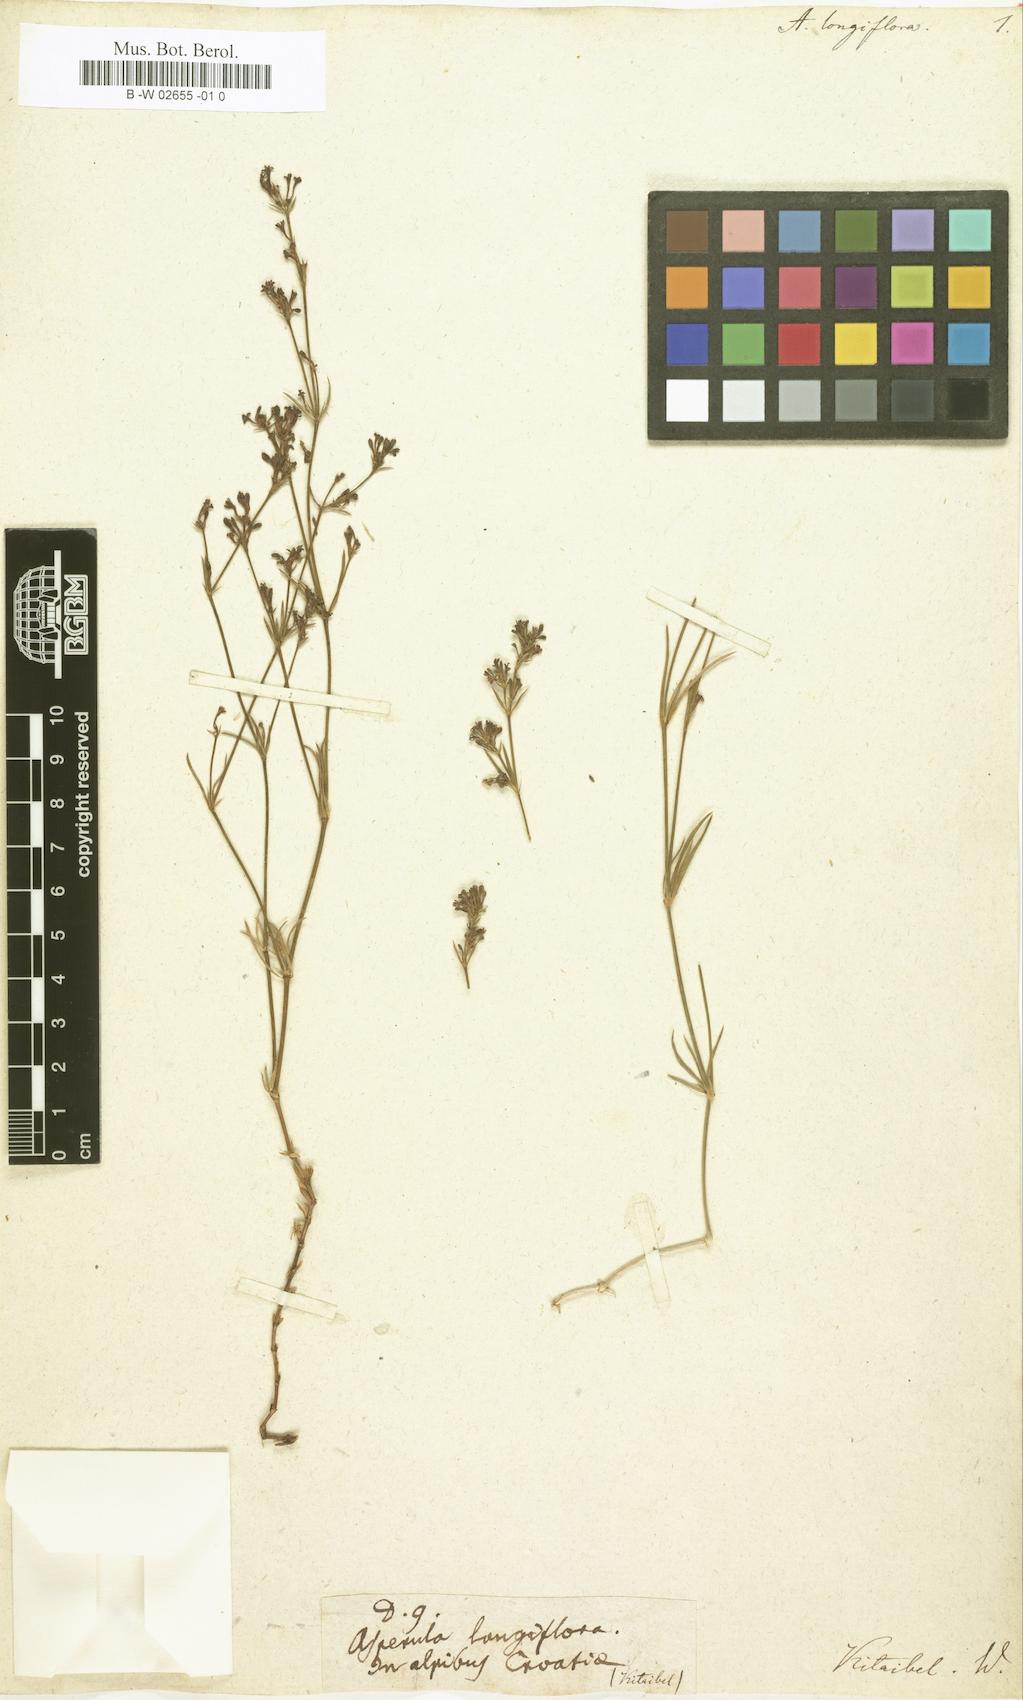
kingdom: Plantae
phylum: Tracheophyta
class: Magnoliopsida
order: Gentianales
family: Rubiaceae
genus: Cynanchica
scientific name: Cynanchica aristata
